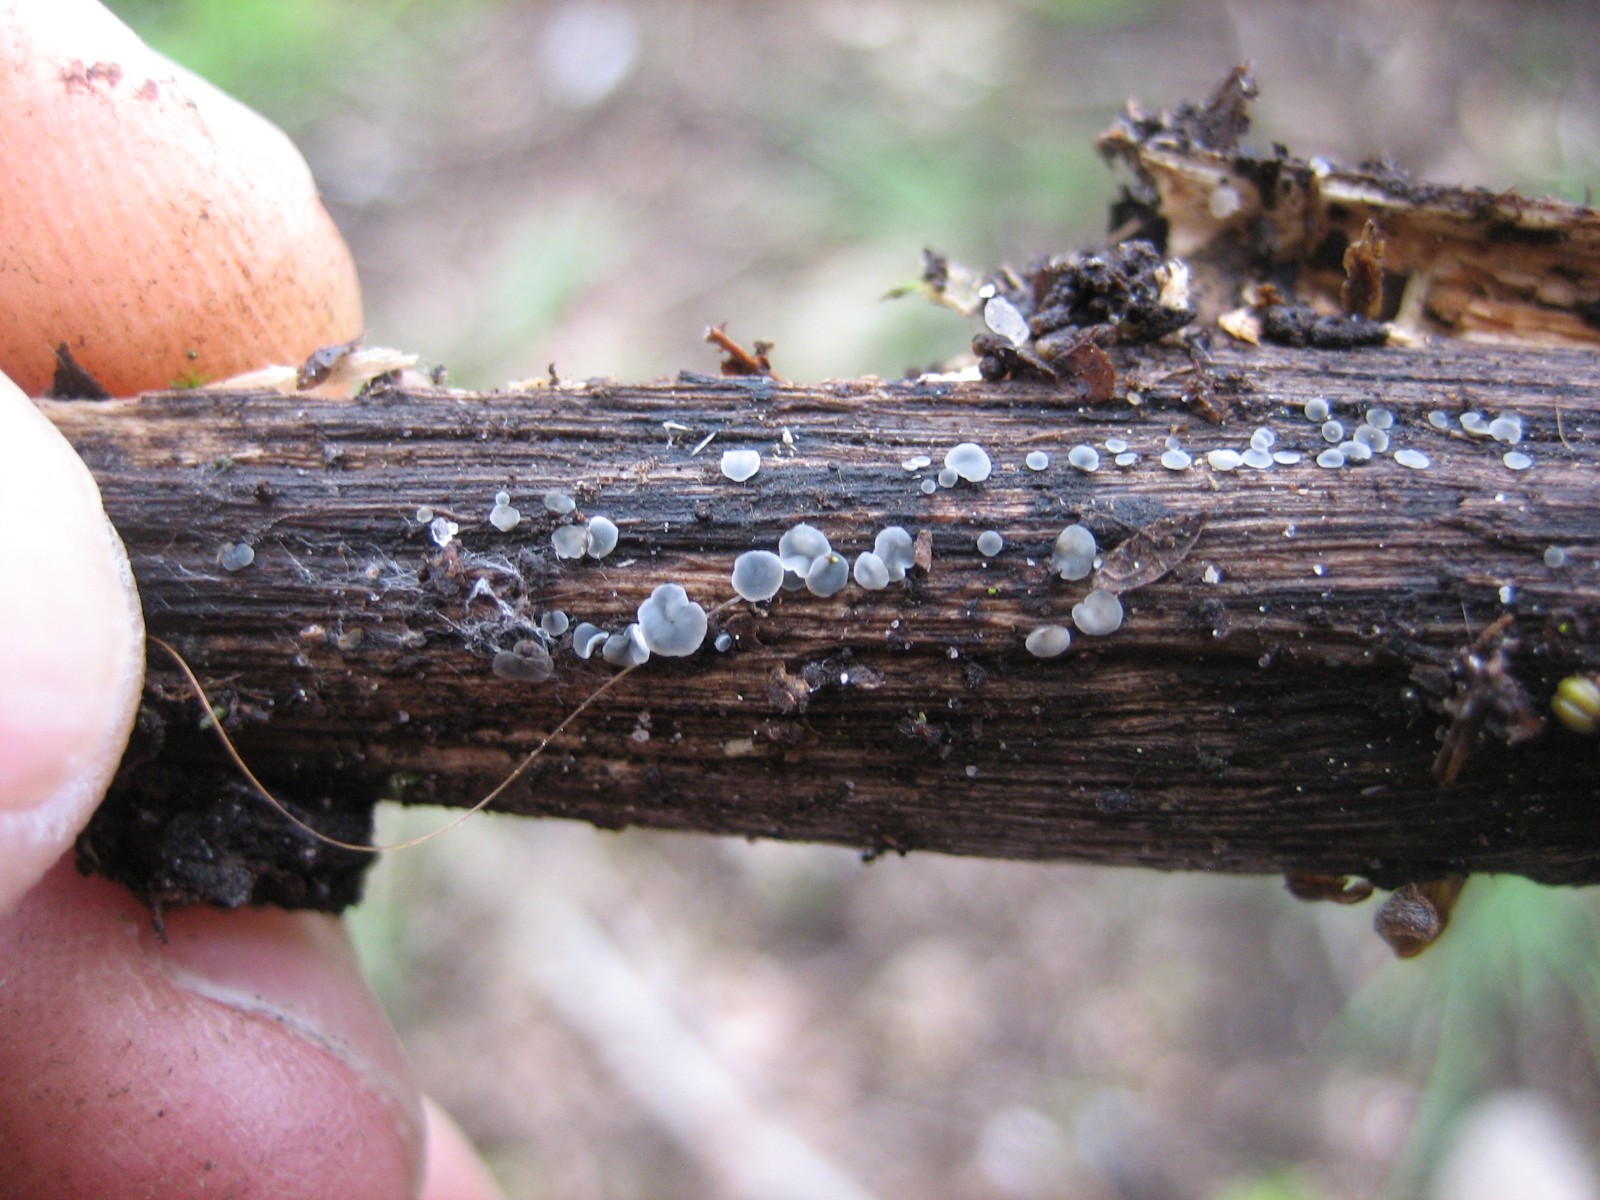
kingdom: Fungi
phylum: Ascomycota
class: Leotiomycetes
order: Helotiales
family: Mollisiaceae
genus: Mollisia
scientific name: Mollisia
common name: gråskive
